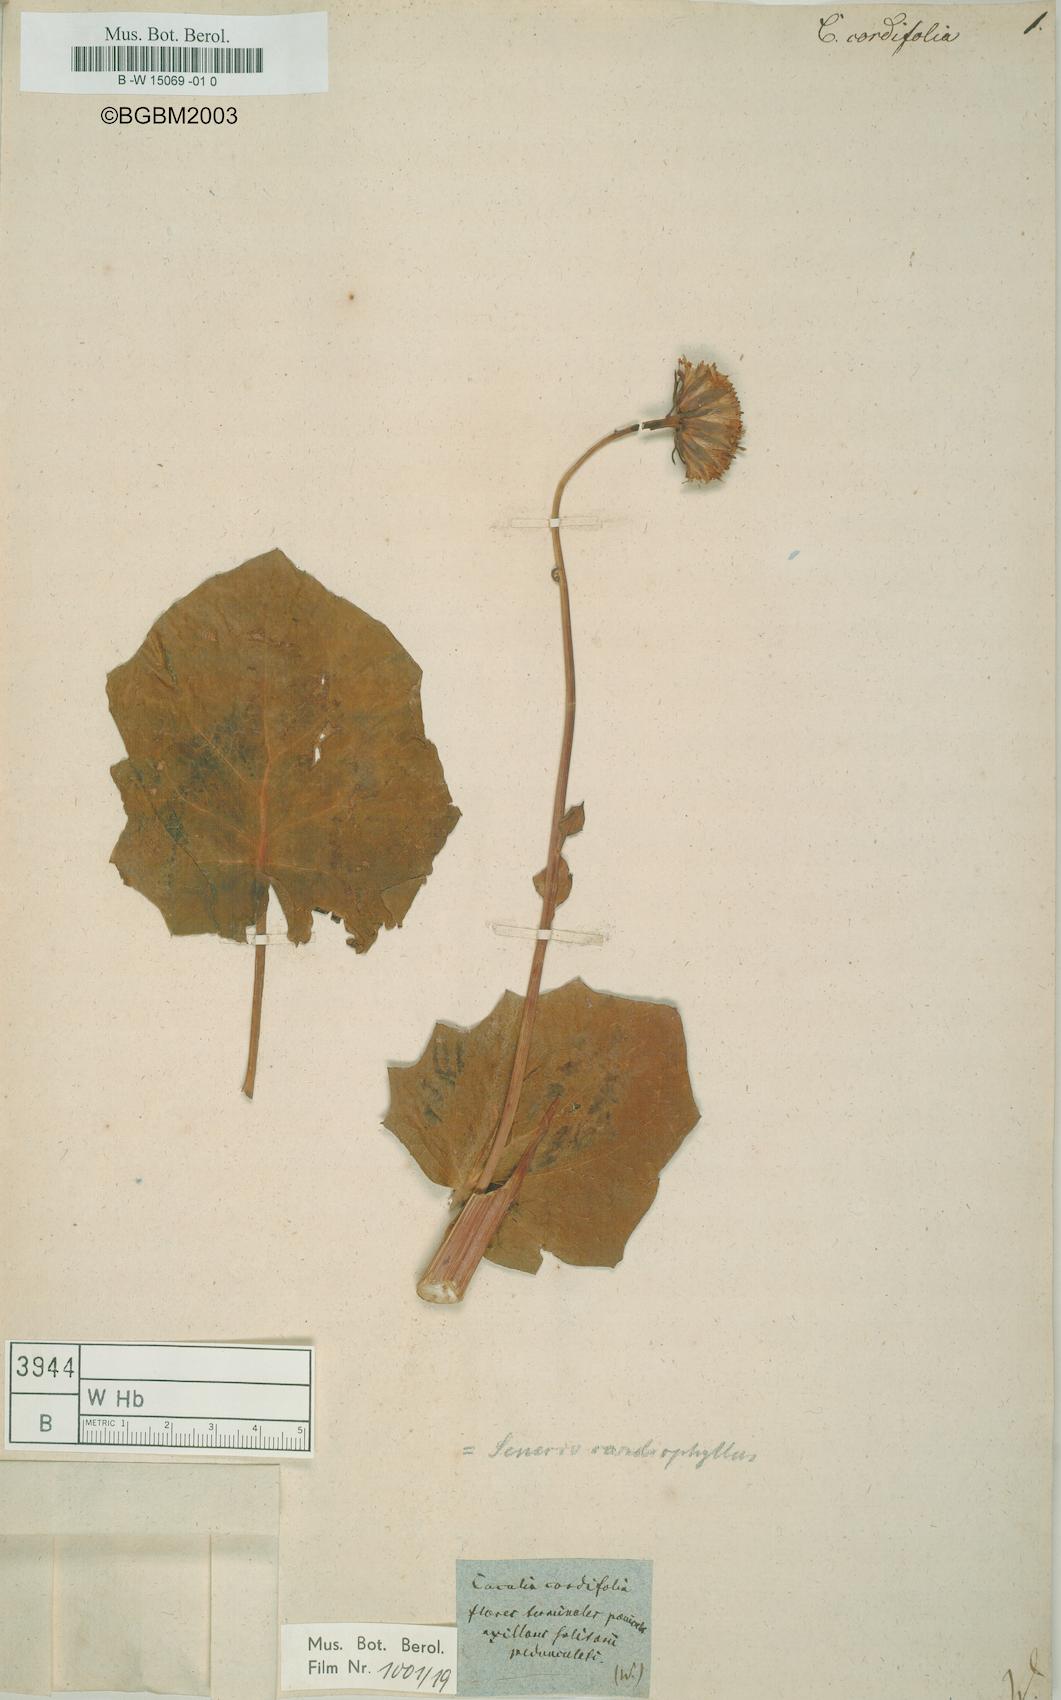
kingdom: Plantae
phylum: Tracheophyta
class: Magnoliopsida
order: Asterales
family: Asteraceae
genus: Mikania
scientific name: Mikania cordifolia
